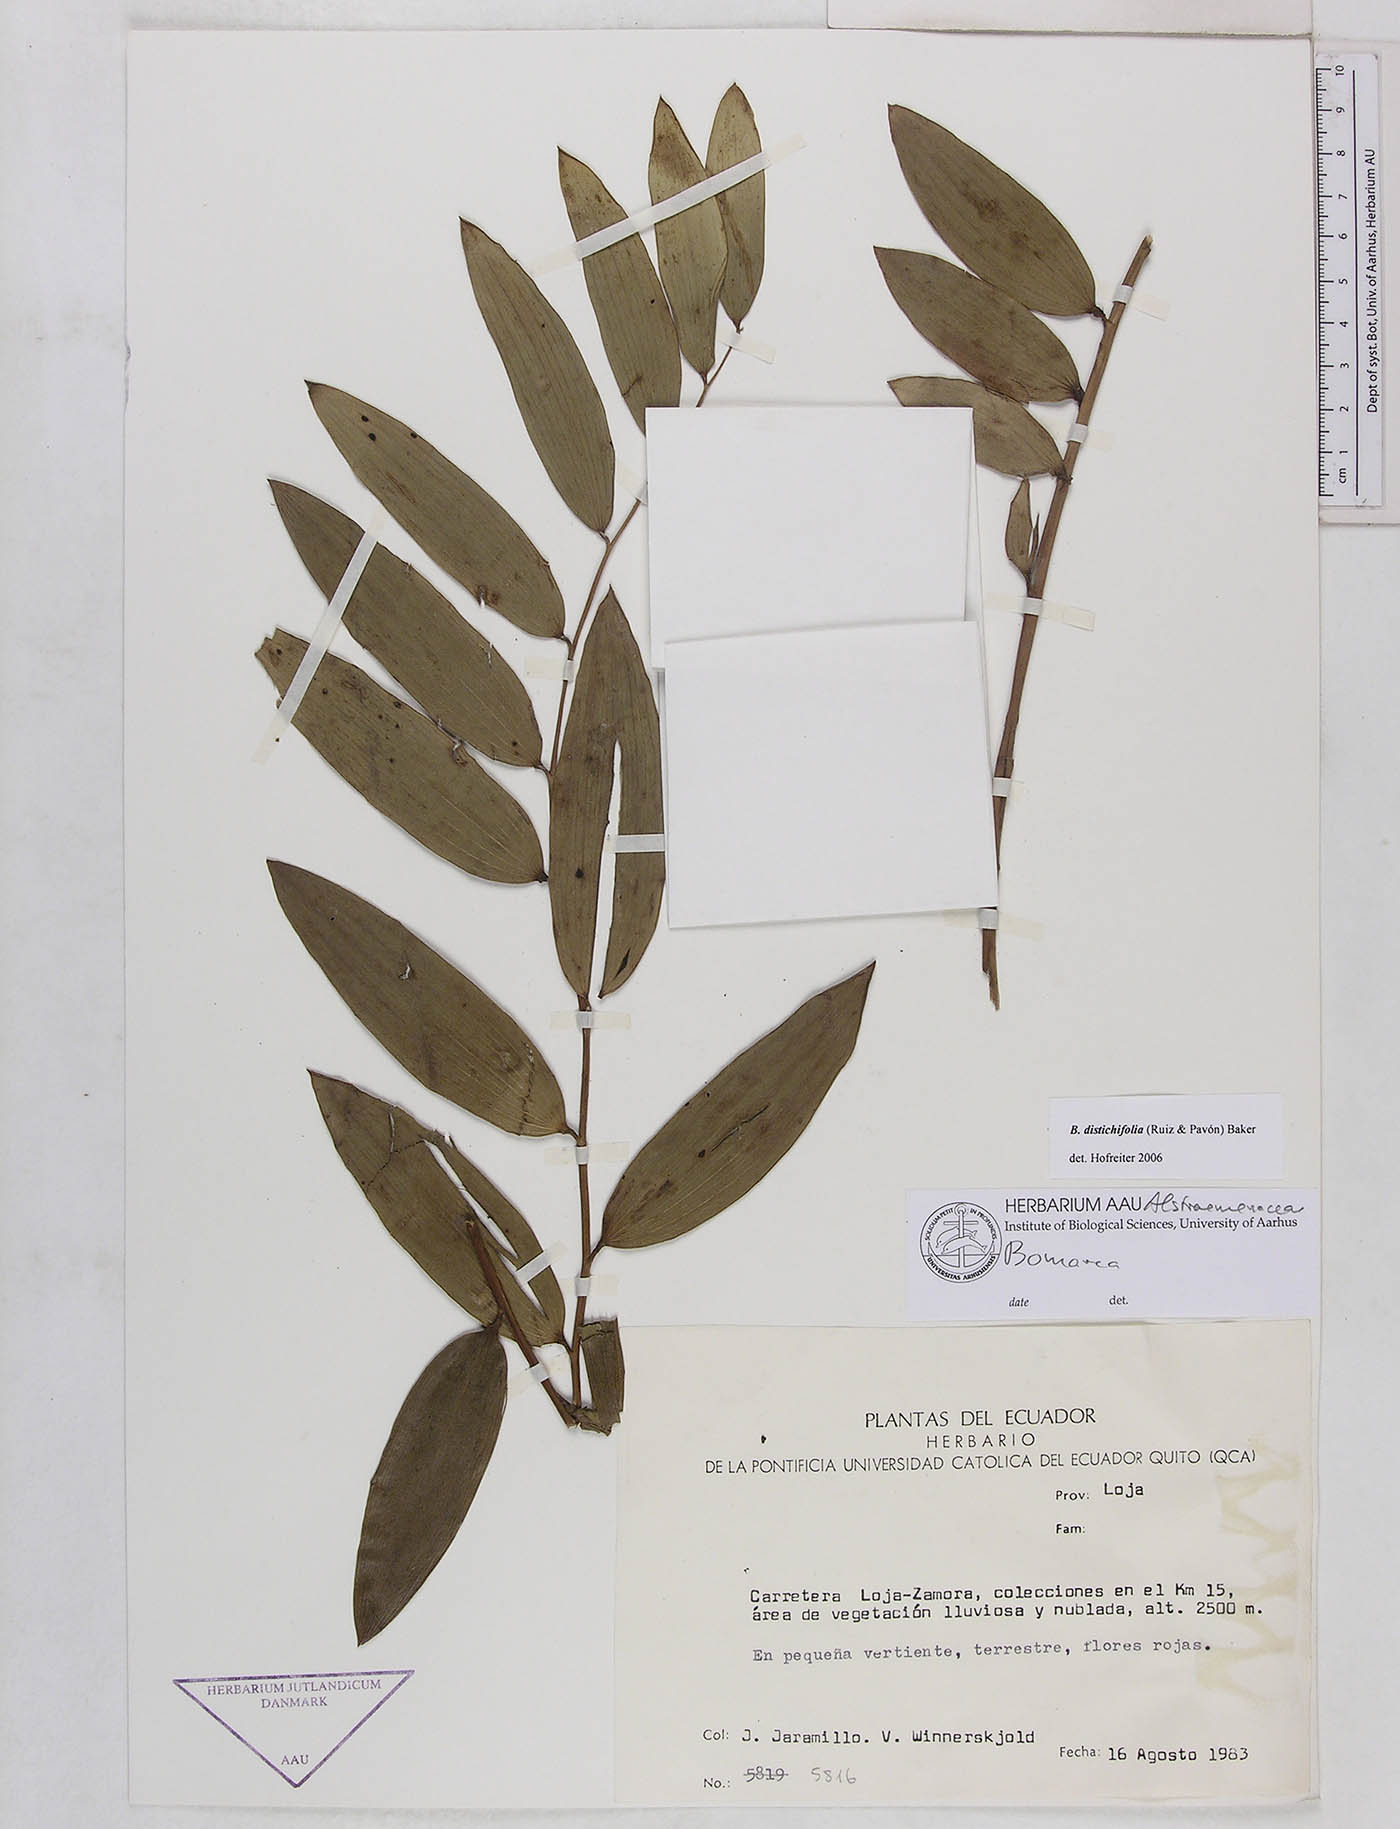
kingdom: Plantae
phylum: Tracheophyta
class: Liliopsida
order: Liliales
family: Alstroemeriaceae
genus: Bomarea
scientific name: Bomarea distichifolia
